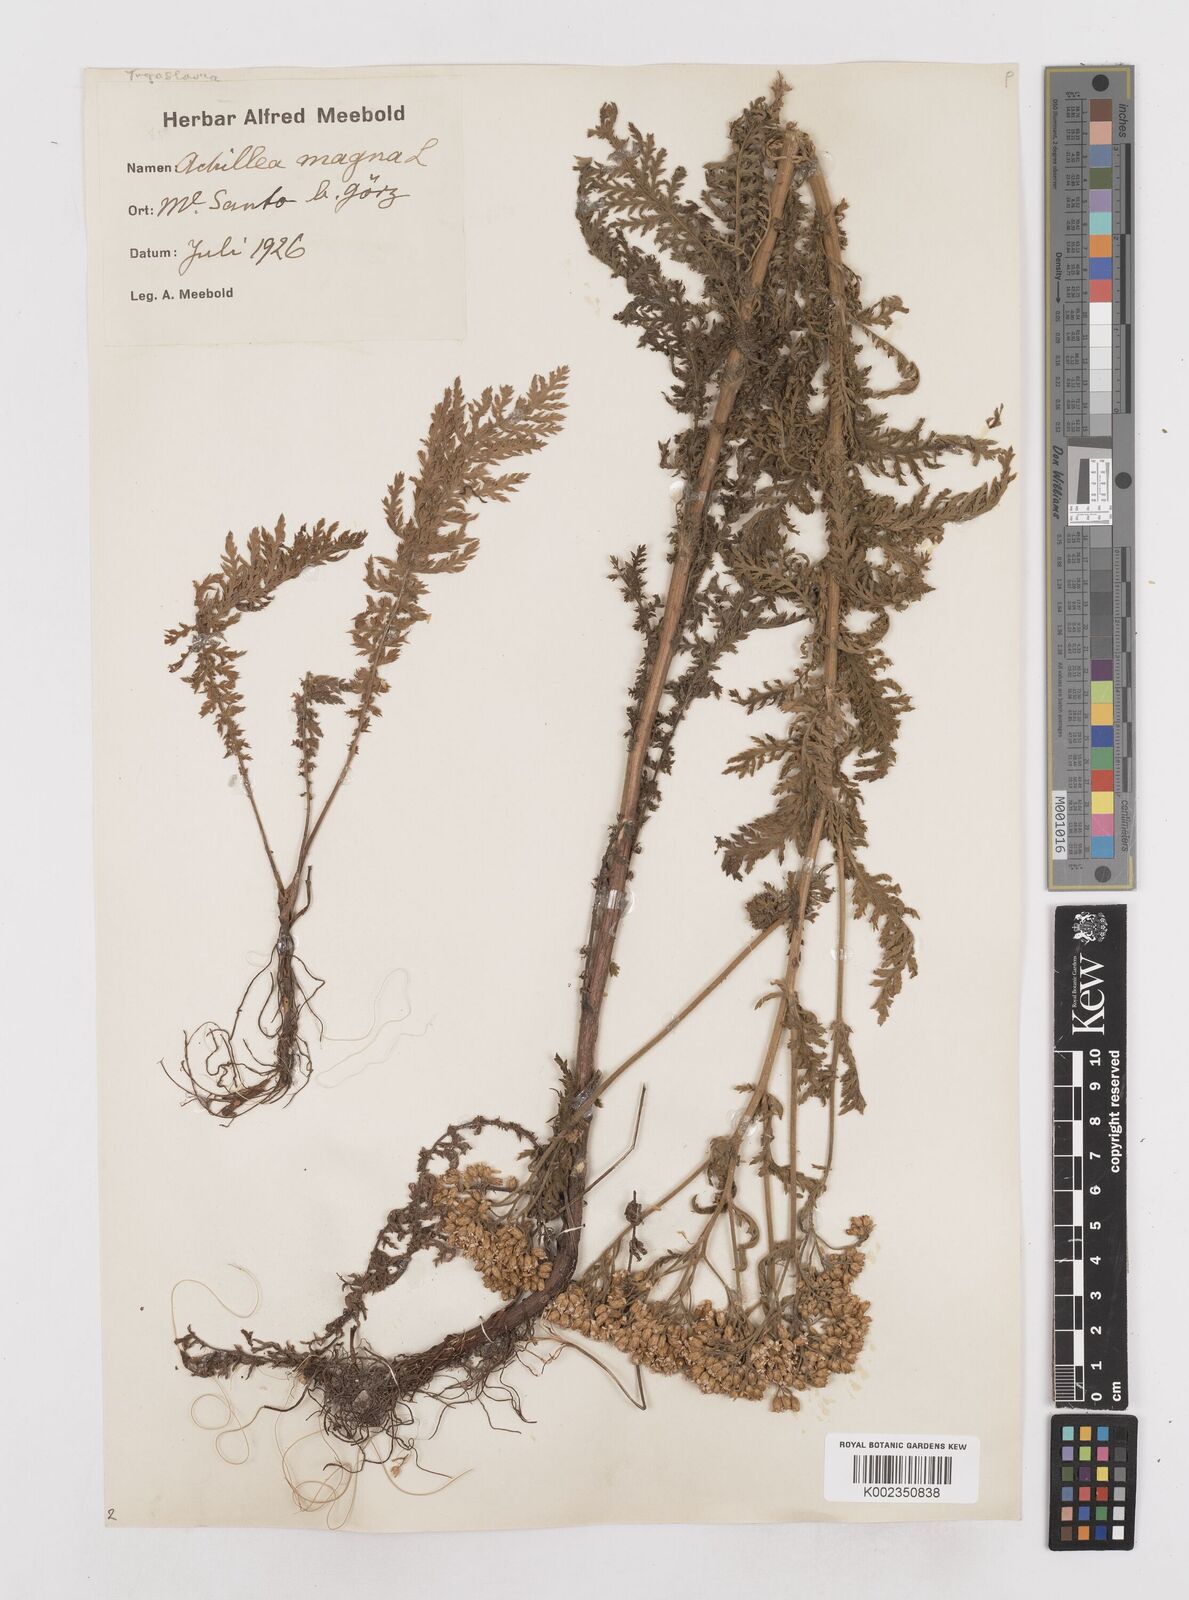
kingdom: Plantae
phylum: Tracheophyta
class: Magnoliopsida
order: Asterales
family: Asteraceae
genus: Achillea
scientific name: Achillea distans
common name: Tall yarrow
